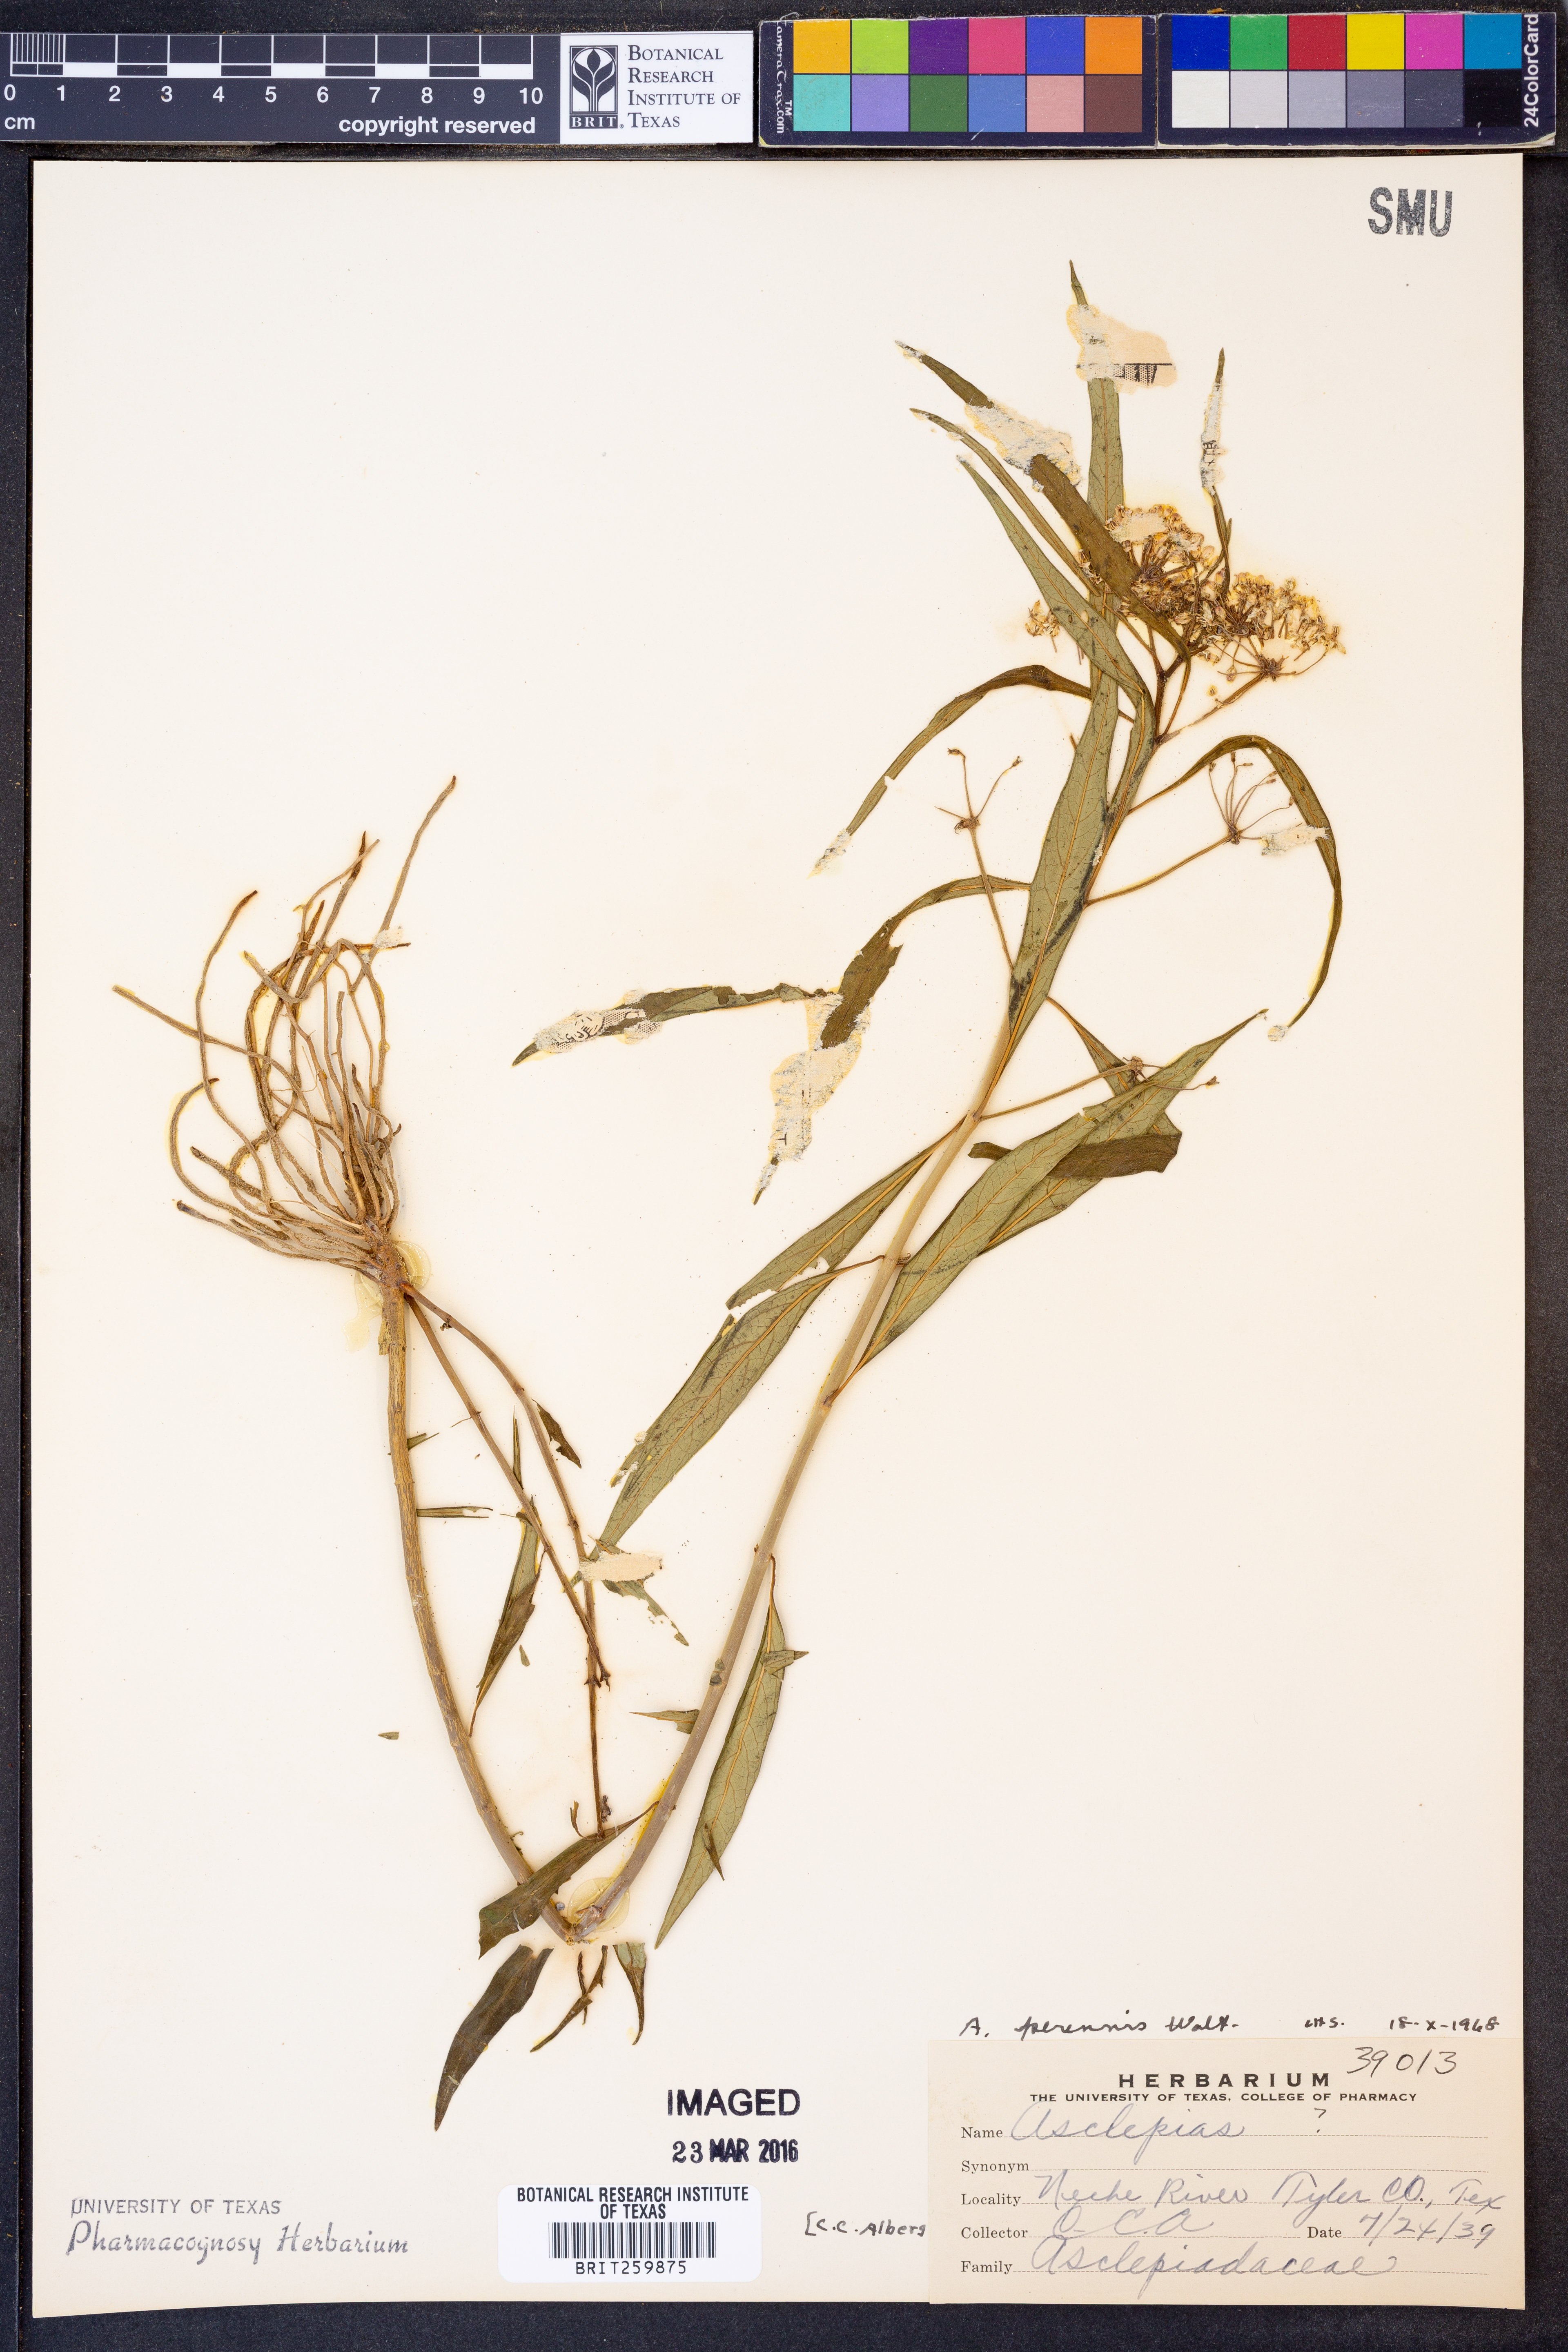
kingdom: Plantae
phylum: Tracheophyta
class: Magnoliopsida
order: Gentianales
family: Apocynaceae
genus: Asclepias
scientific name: Asclepias perennis
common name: Smooth-seed milkweed
